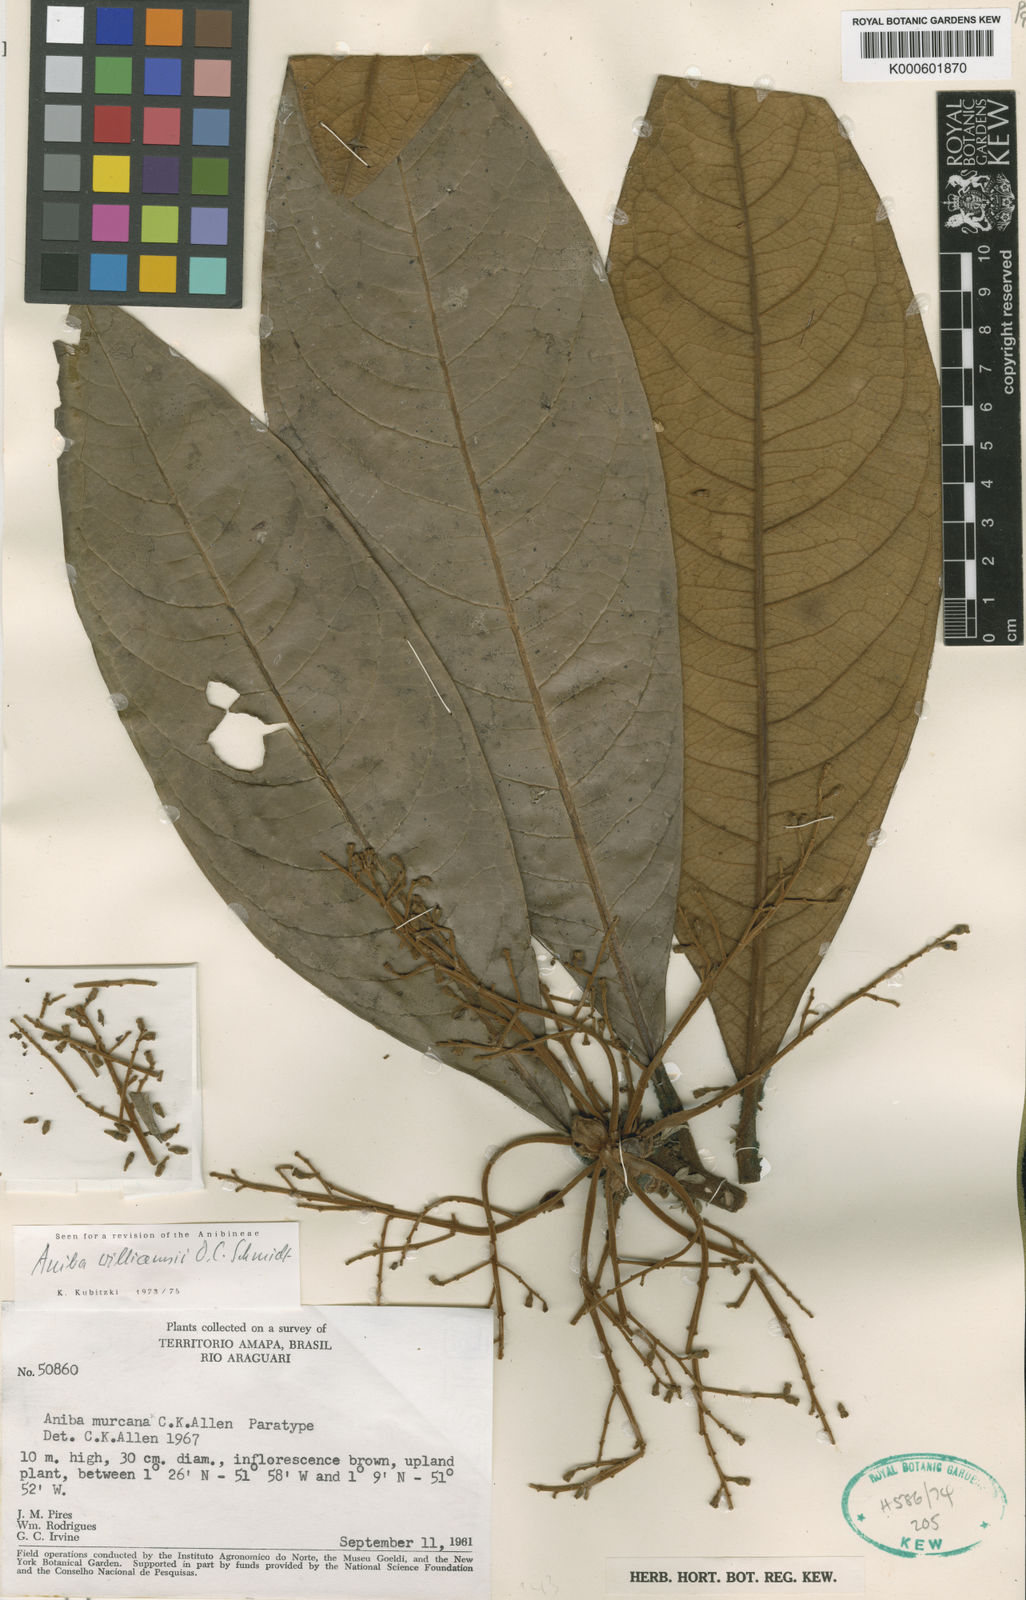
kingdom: Plantae
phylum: Tracheophyta
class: Magnoliopsida
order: Laurales
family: Lauraceae
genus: Aniba
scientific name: Aniba williamsii
